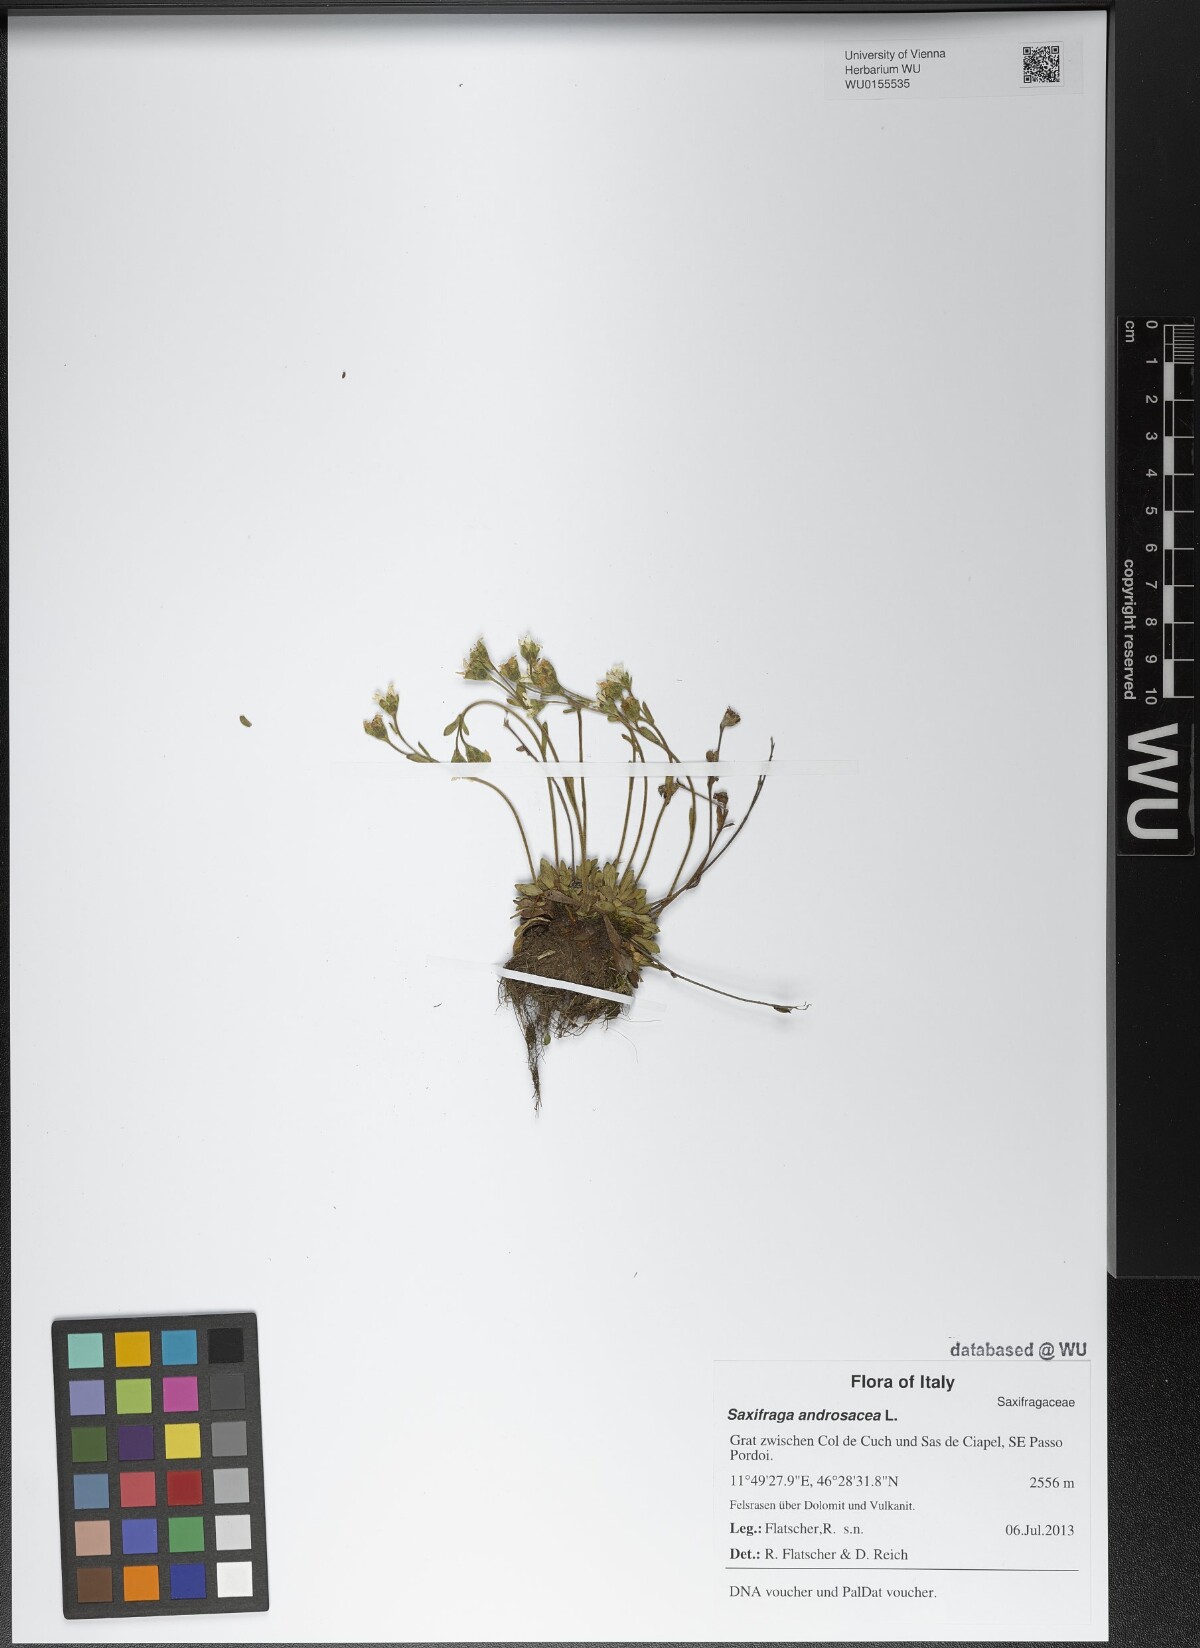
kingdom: Plantae
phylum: Tracheophyta
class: Magnoliopsida
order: Saxifragales
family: Saxifragaceae
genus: Saxifraga
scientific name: Saxifraga androsacea
